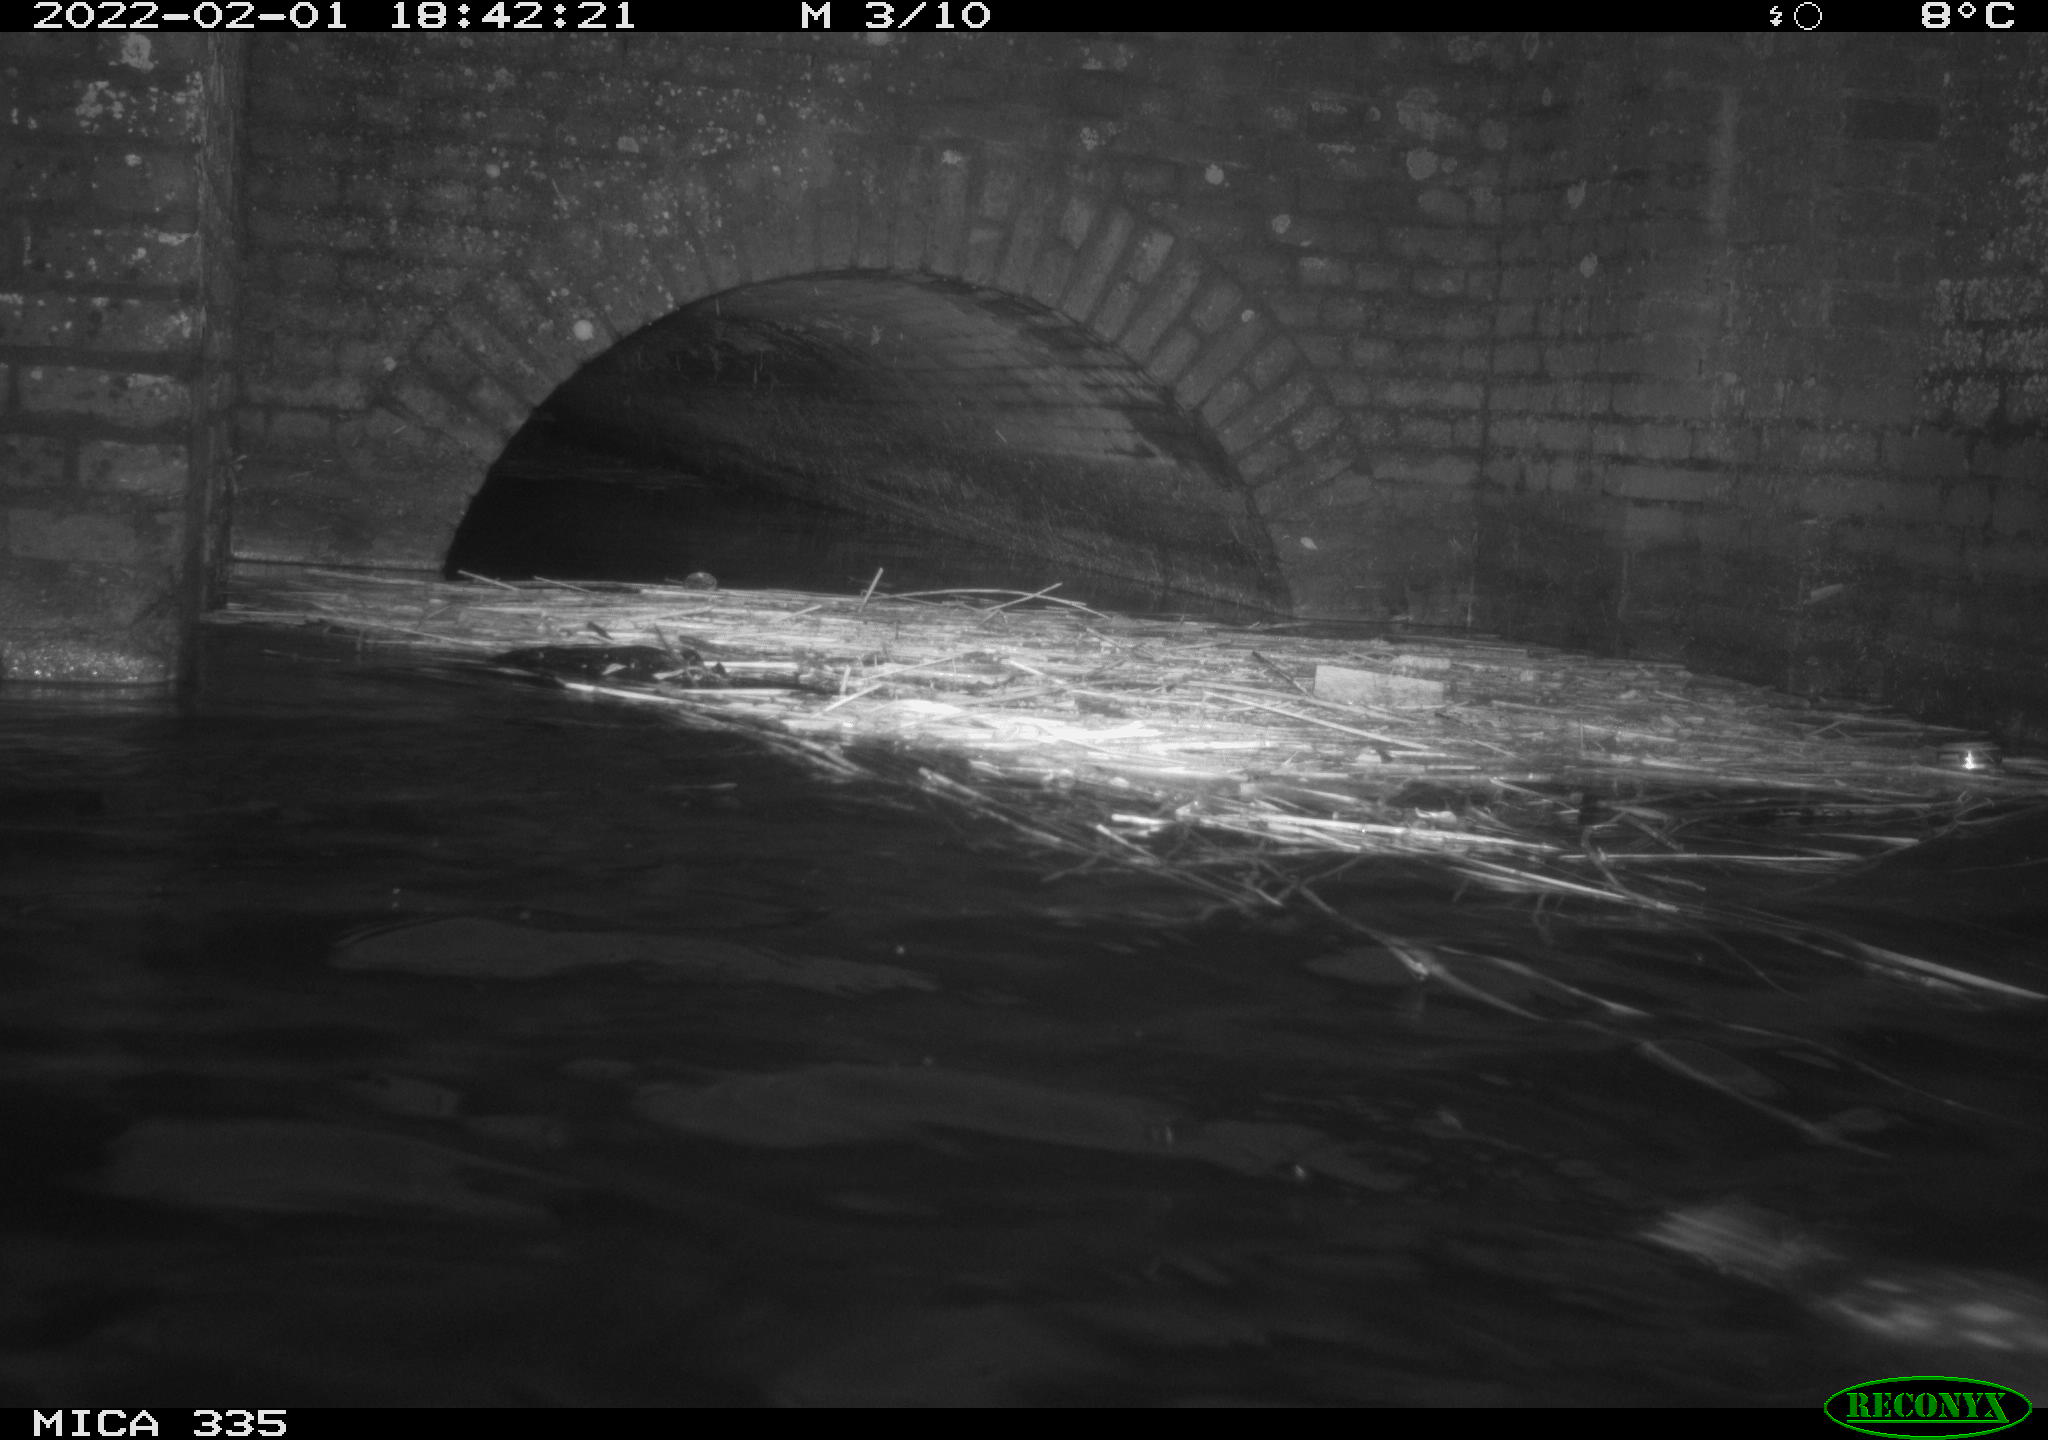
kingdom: Animalia
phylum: Chordata
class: Aves
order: Suliformes
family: Phalacrocoracidae
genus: Phalacrocorax
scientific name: Phalacrocorax carbo
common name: Great cormorant
